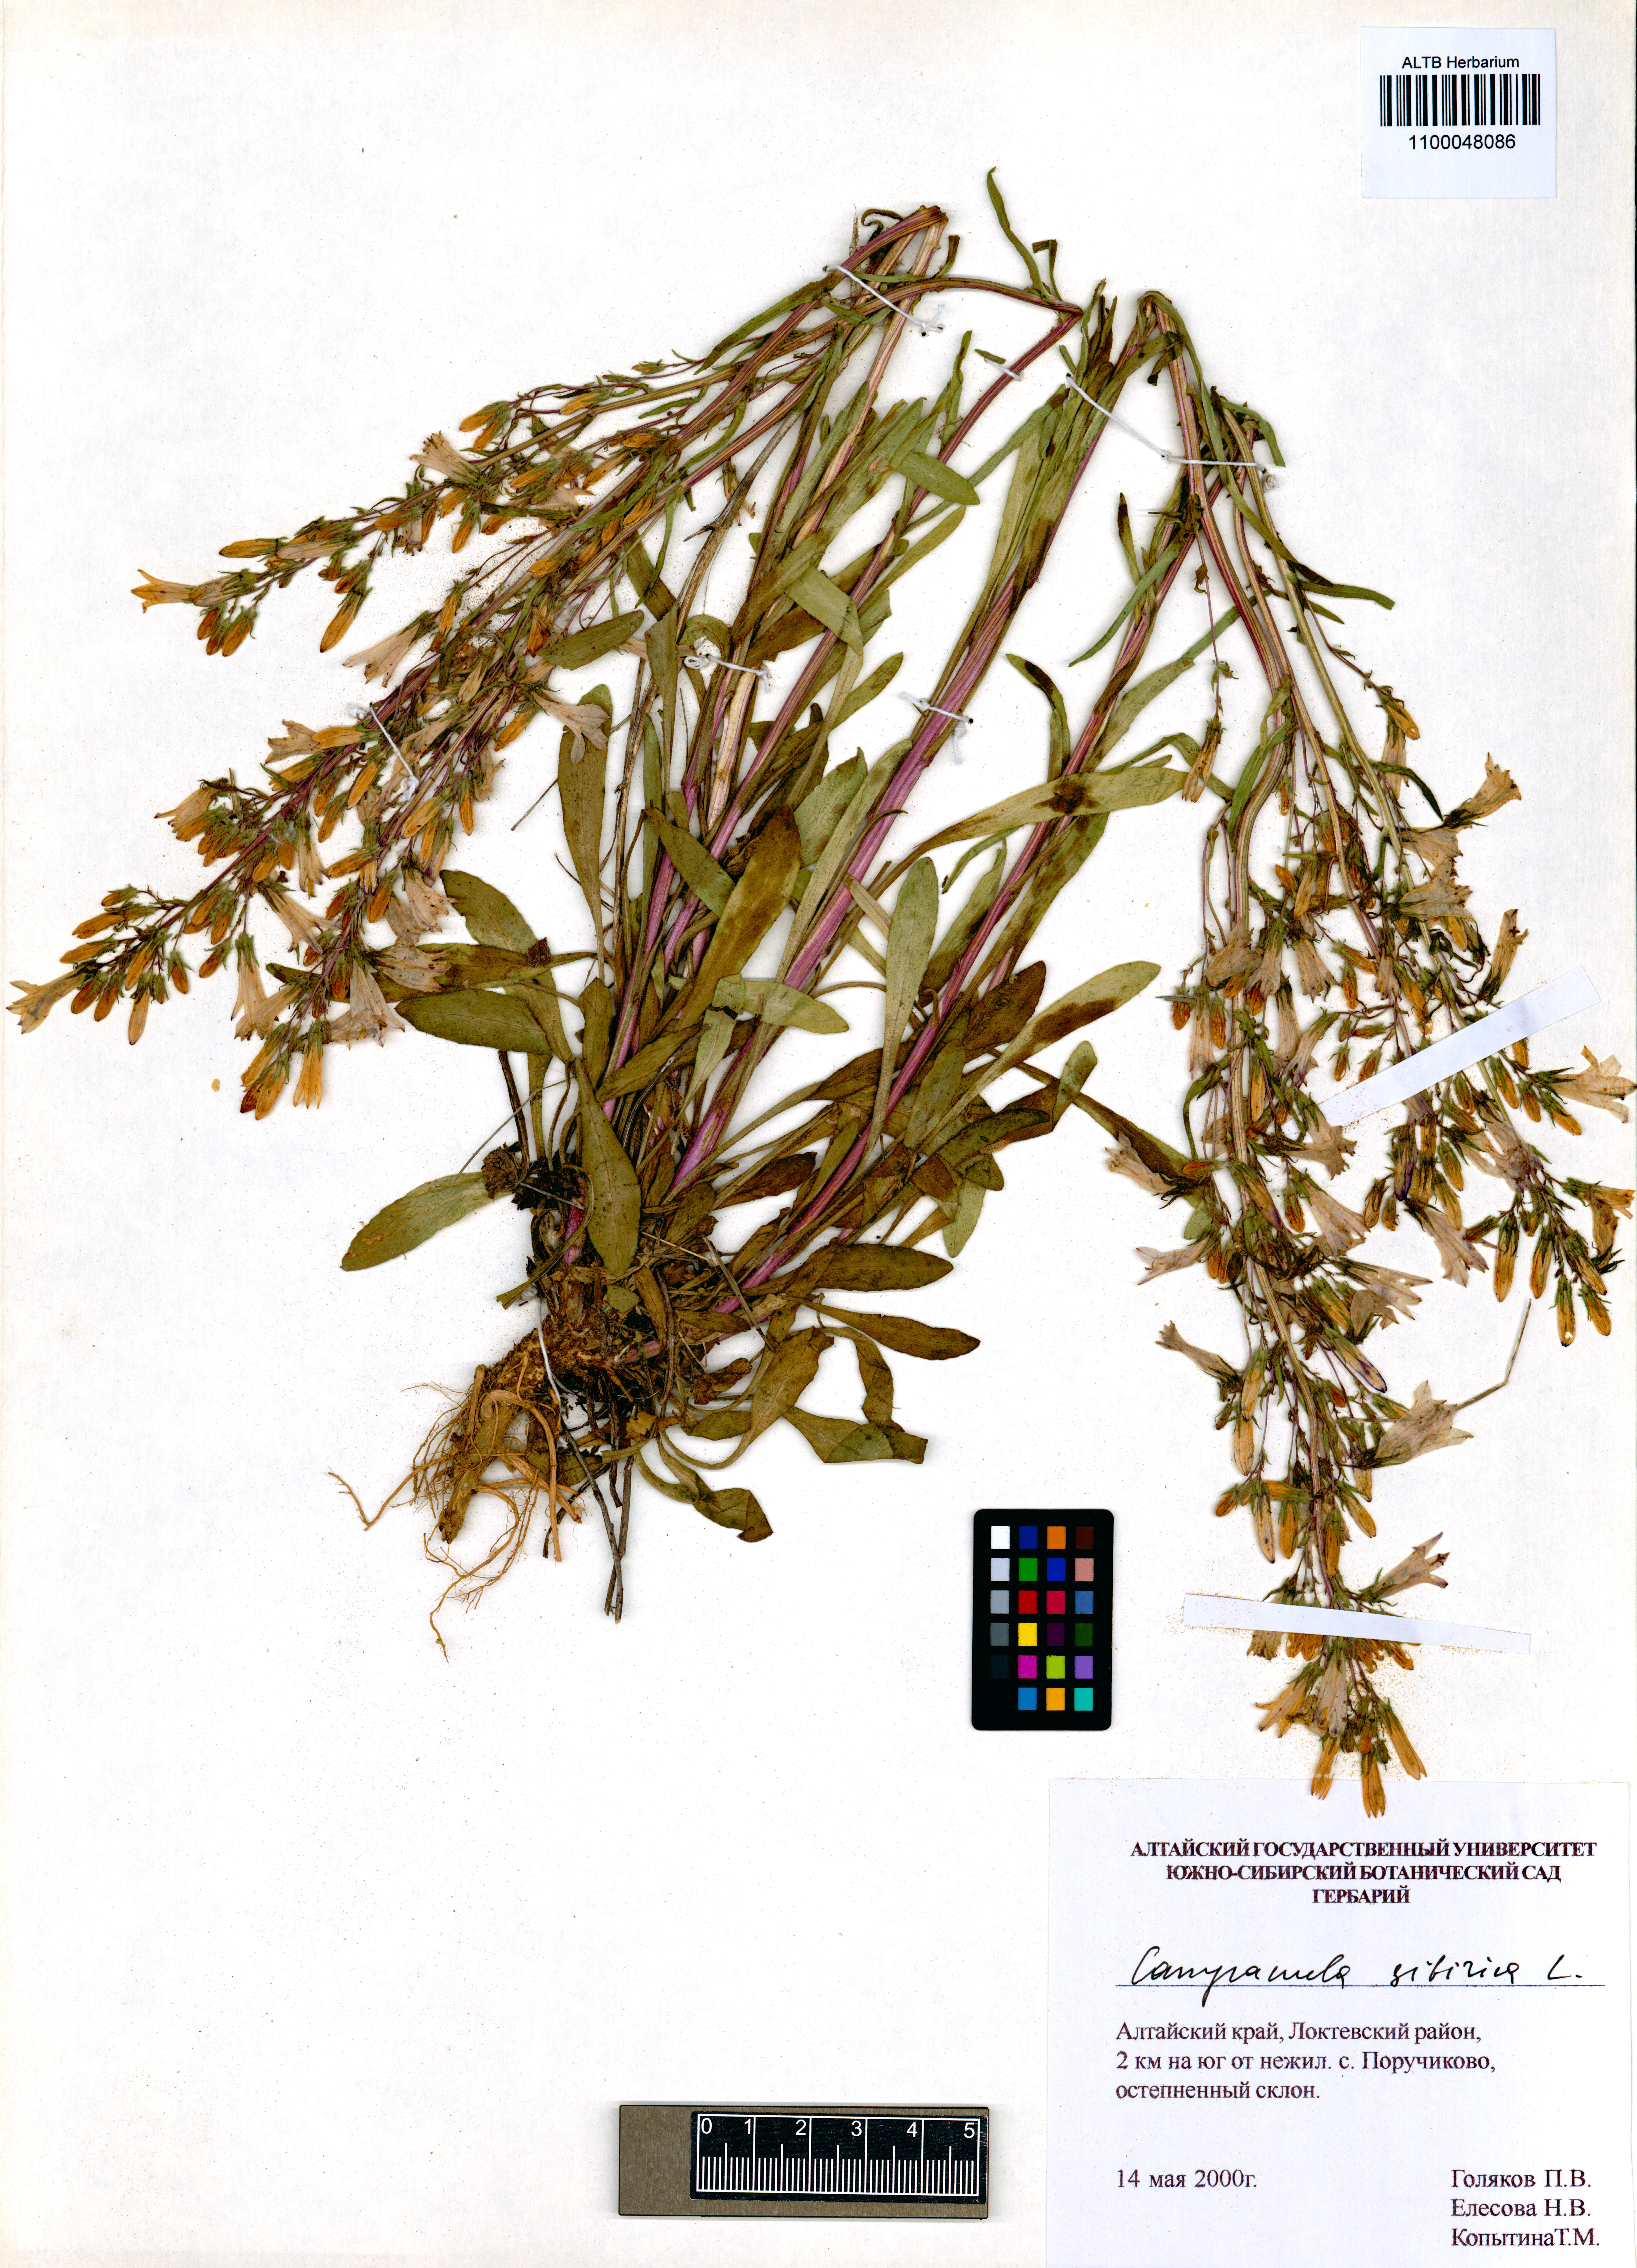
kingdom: Plantae
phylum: Tracheophyta
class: Magnoliopsida
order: Asterales
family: Campanulaceae
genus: Campanula
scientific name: Campanula sibirica
